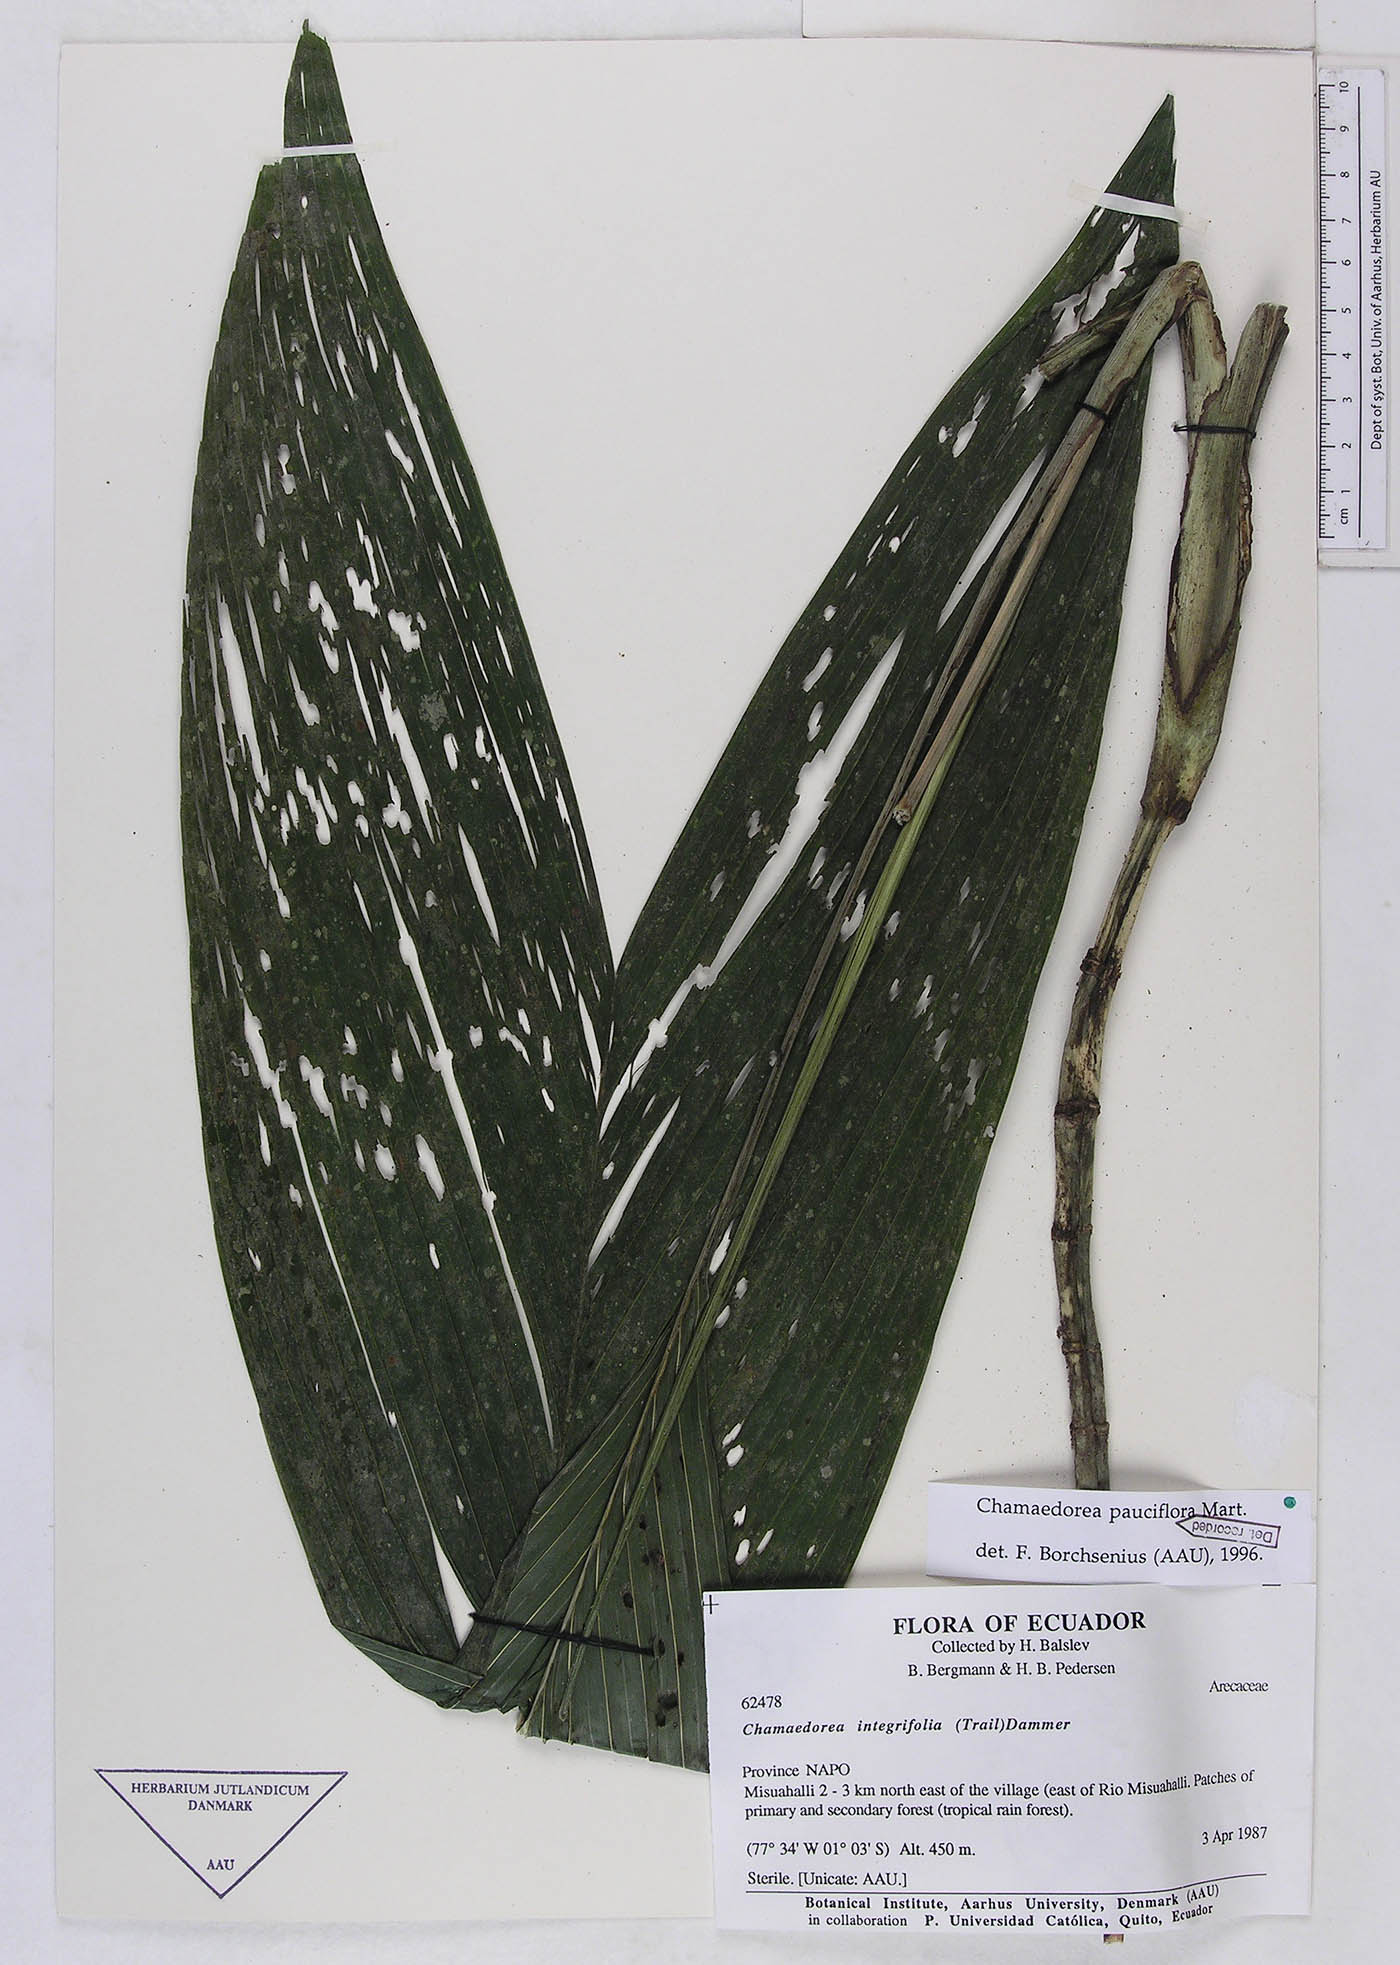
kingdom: Plantae
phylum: Tracheophyta
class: Liliopsida
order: Arecales
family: Arecaceae
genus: Chamaedorea
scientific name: Chamaedorea pauciflora
